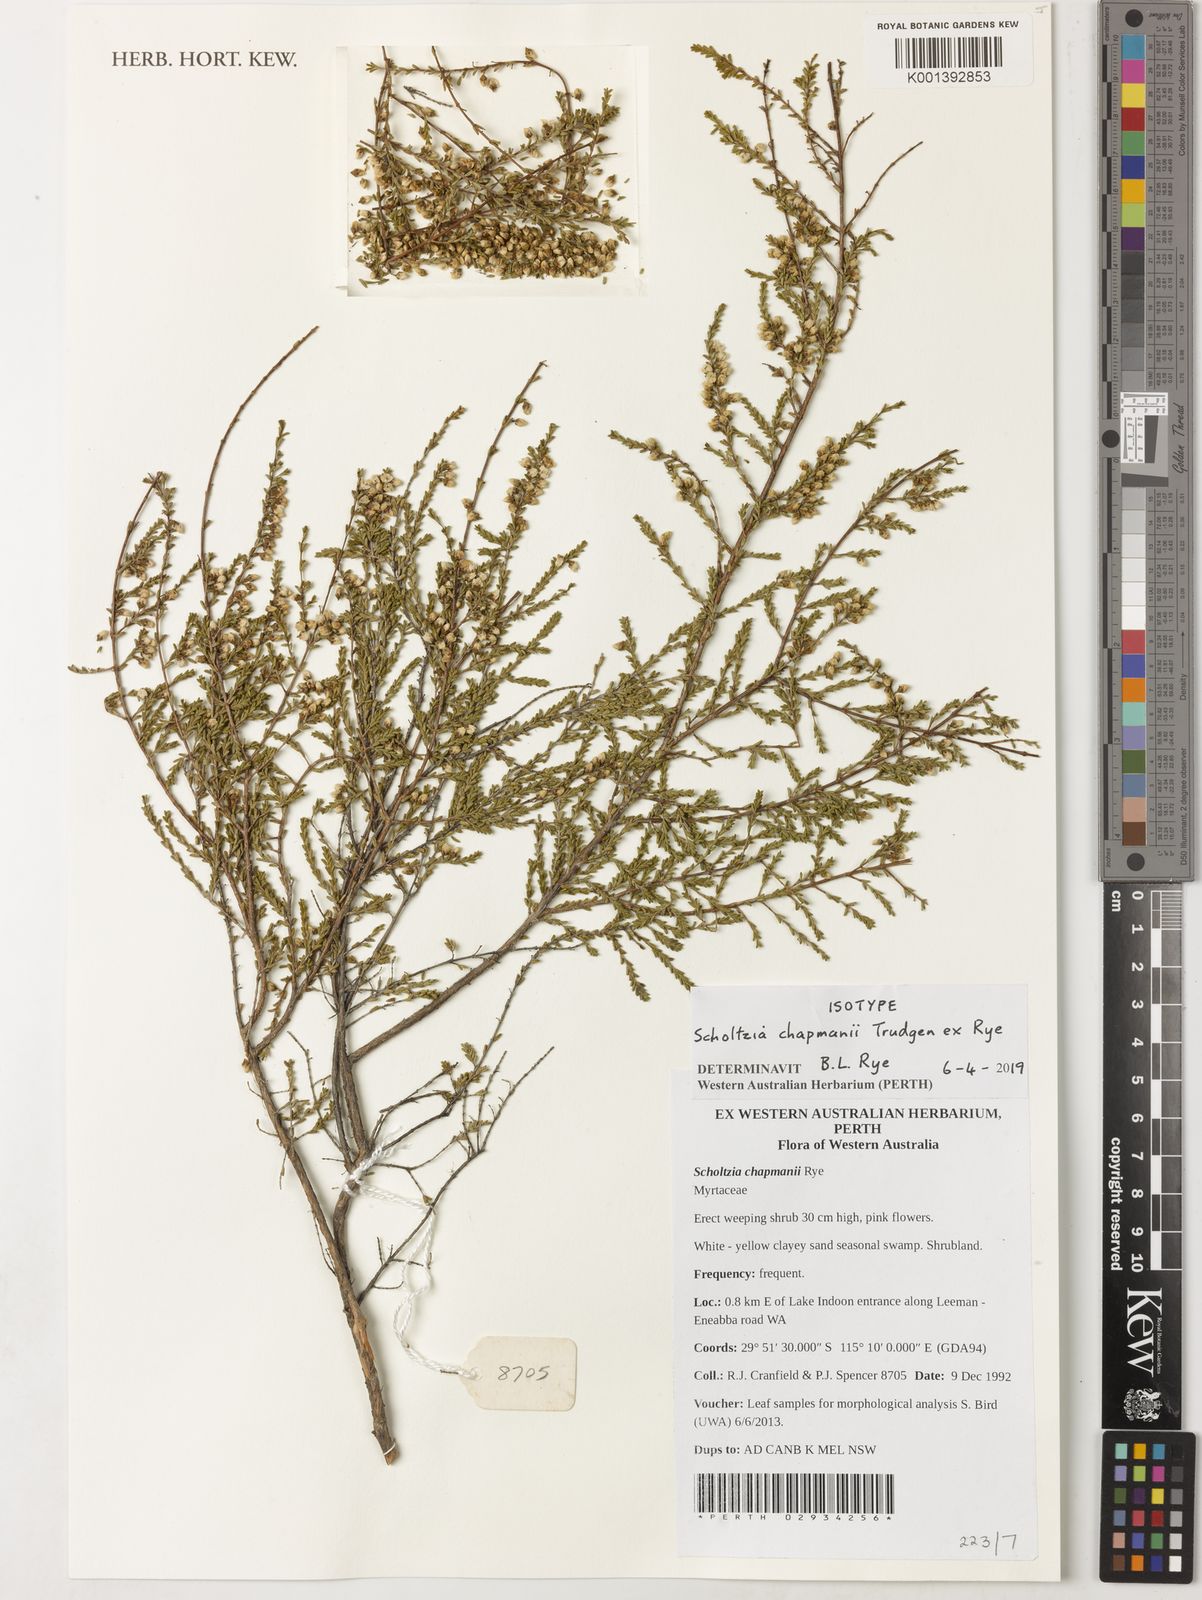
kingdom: Plantae
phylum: Tracheophyta
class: Magnoliopsida
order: Myrtales
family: Myrtaceae
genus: Scholtzia
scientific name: Scholtzia
